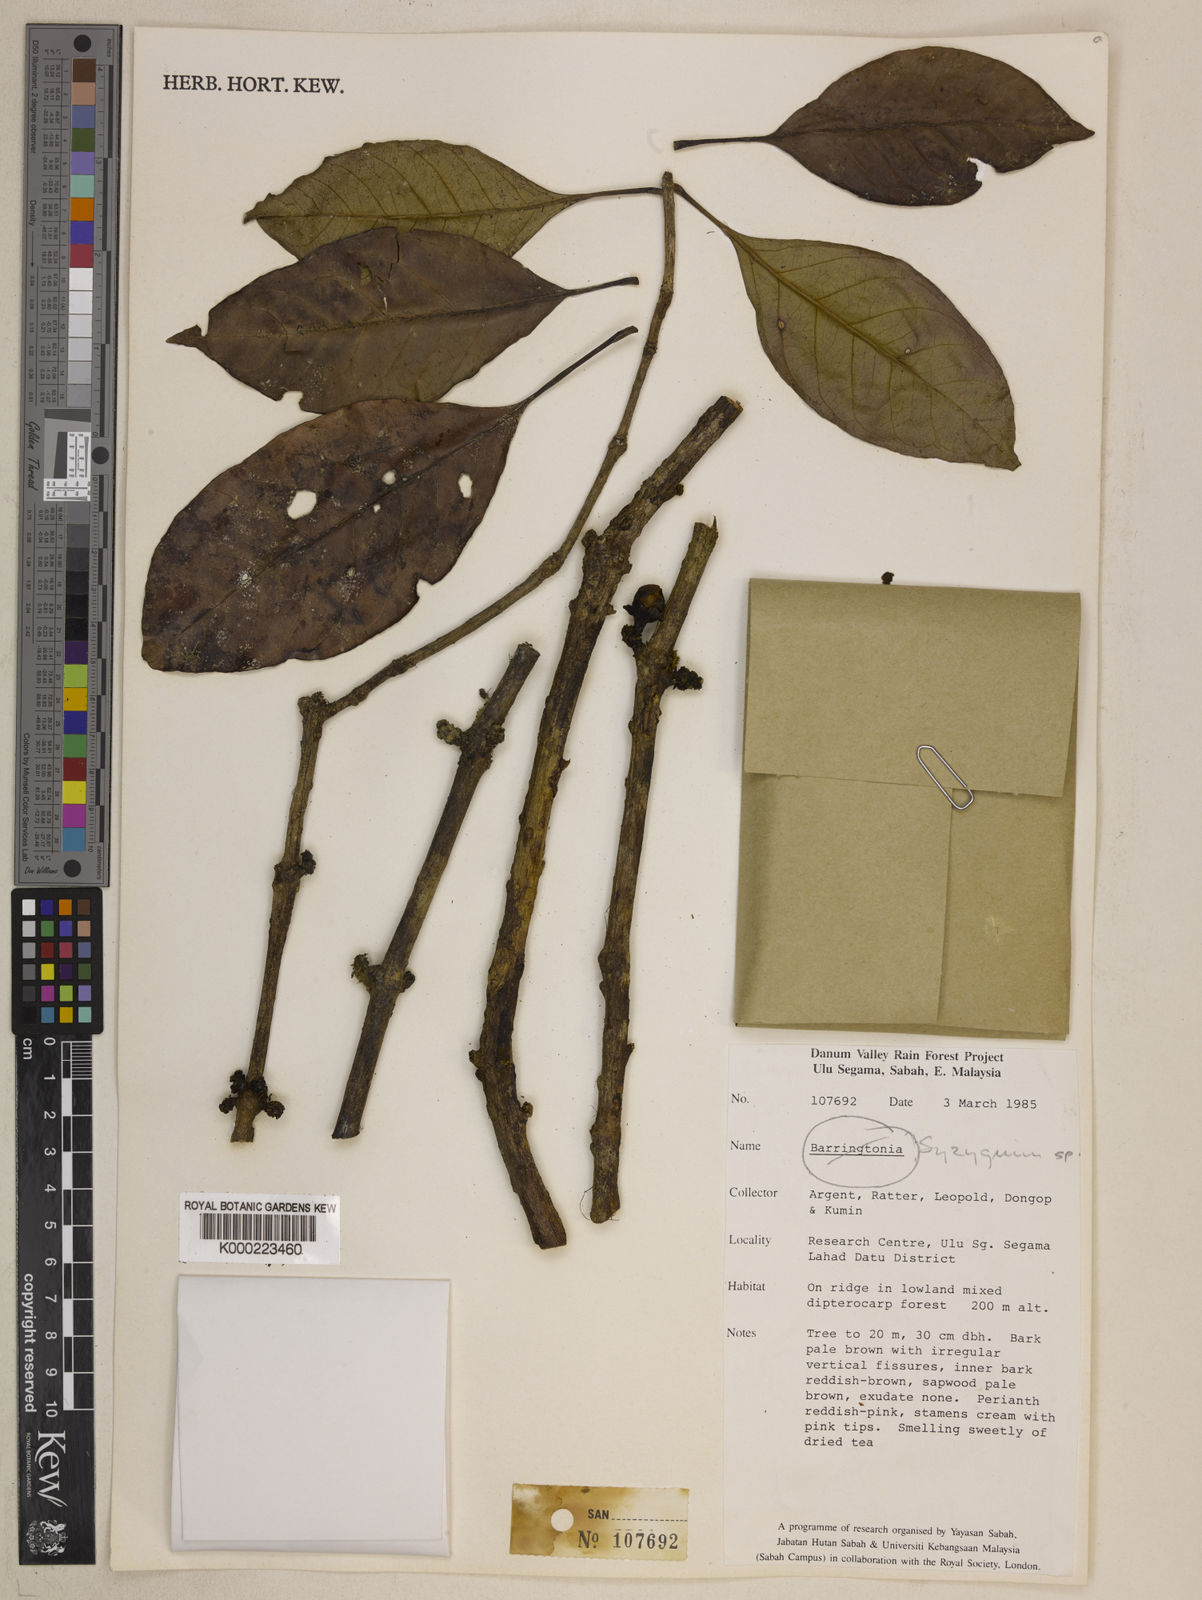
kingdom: Plantae
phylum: Tracheophyta
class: Magnoliopsida
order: Myrtales
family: Myrtaceae
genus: Syzygium
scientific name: Syzygium
